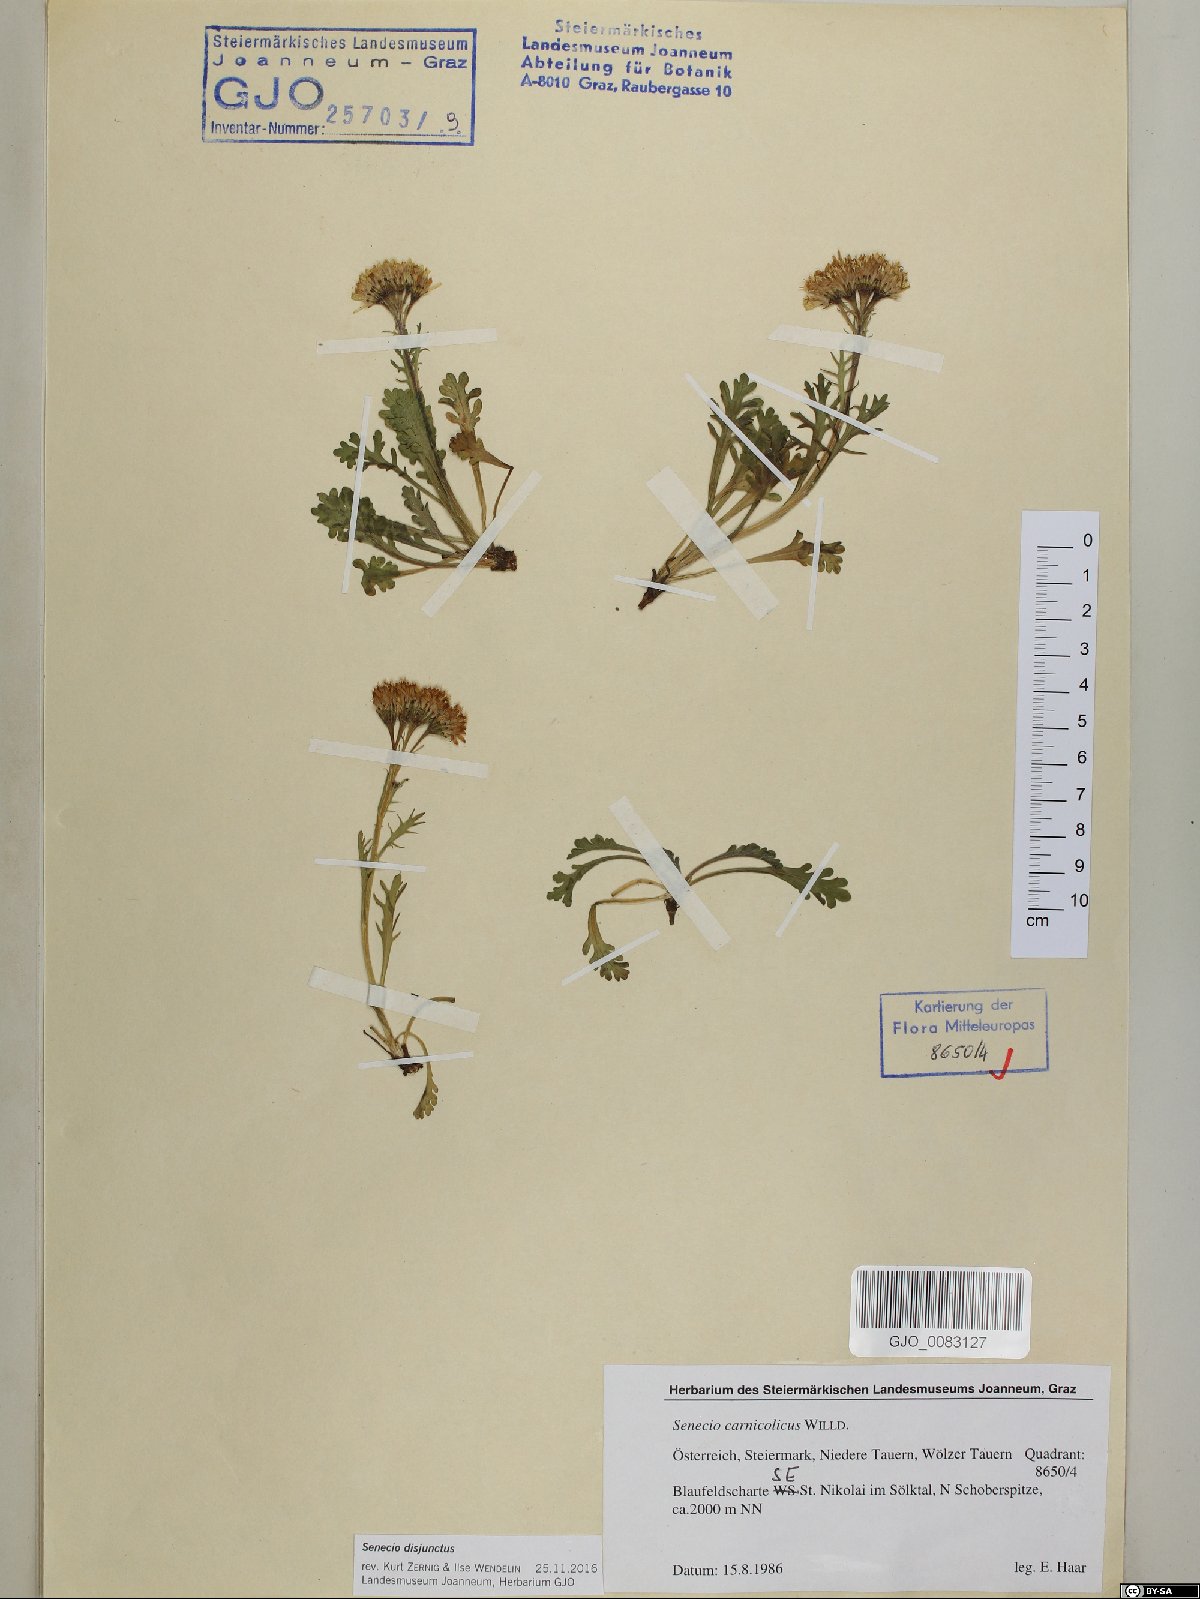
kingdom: Plantae
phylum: Tracheophyta
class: Magnoliopsida
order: Asterales
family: Asteraceae
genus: Jacobaea
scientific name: Jacobaea disjuncta
